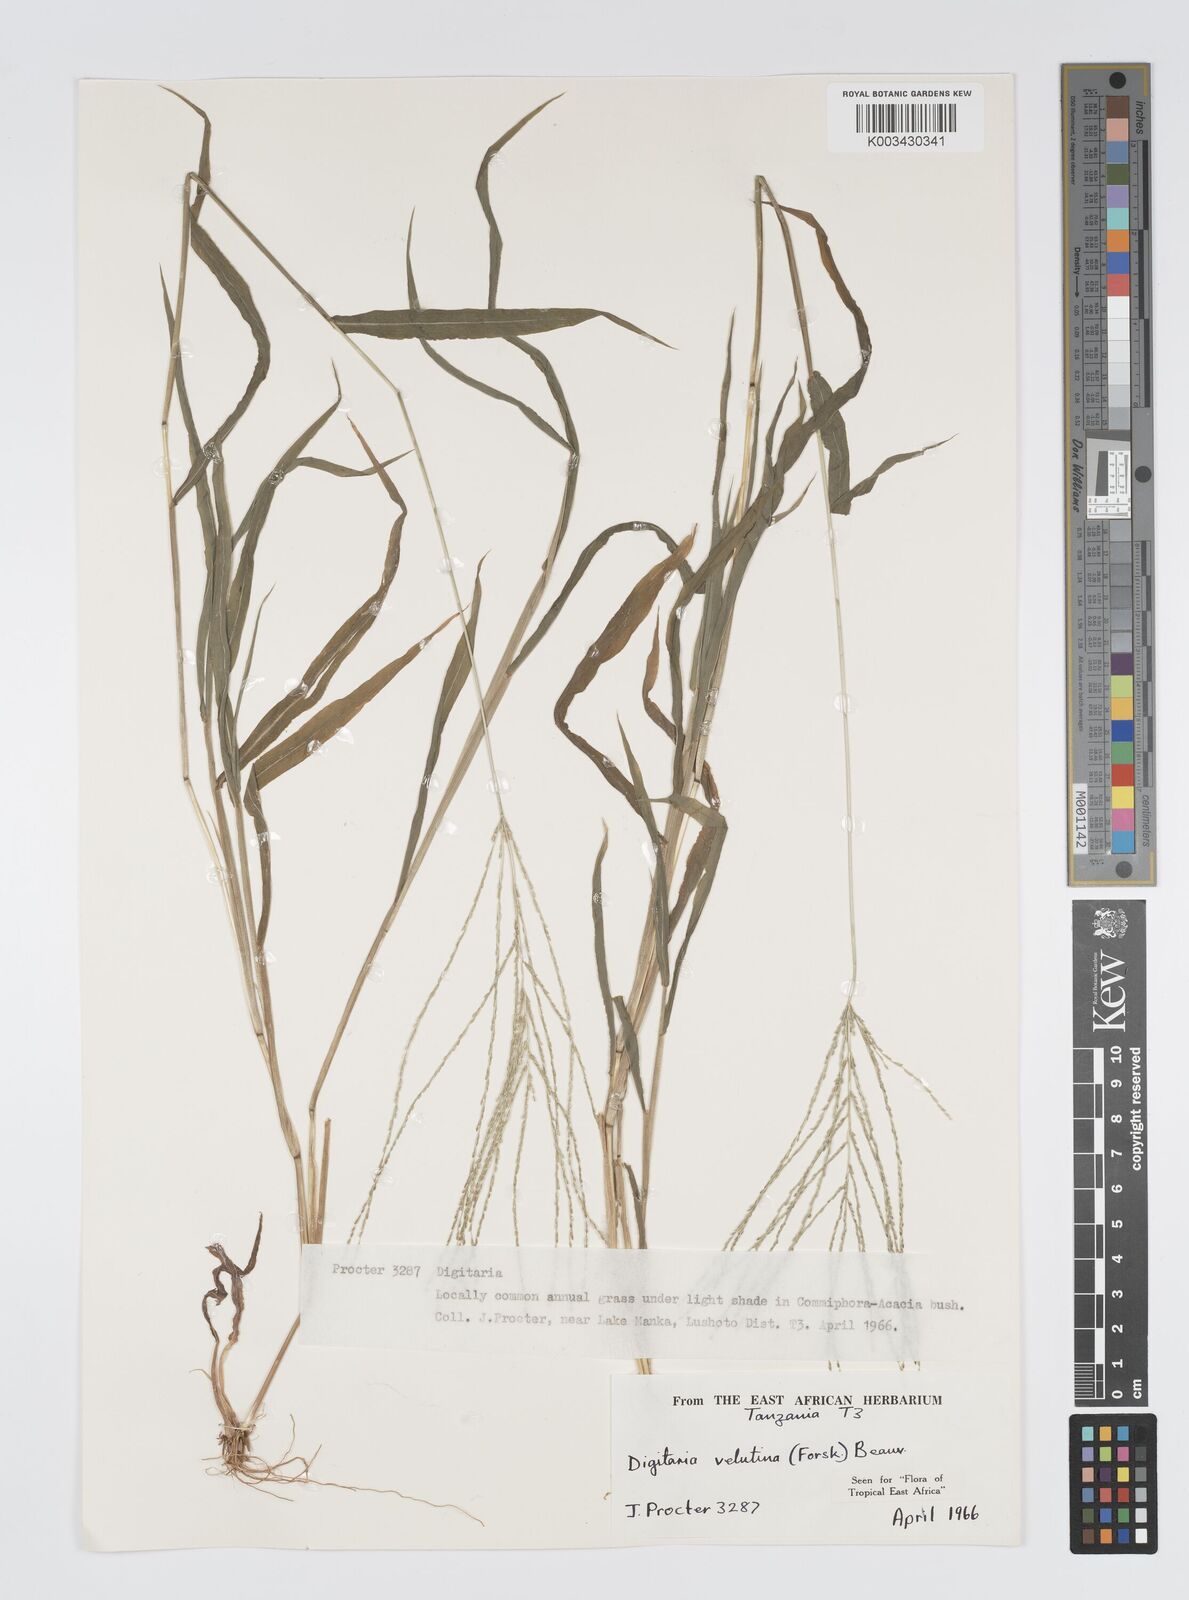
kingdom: Plantae
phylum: Tracheophyta
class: Liliopsida
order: Poales
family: Poaceae
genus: Digitaria
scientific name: Digitaria velutina
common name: Long-plume finger grass
